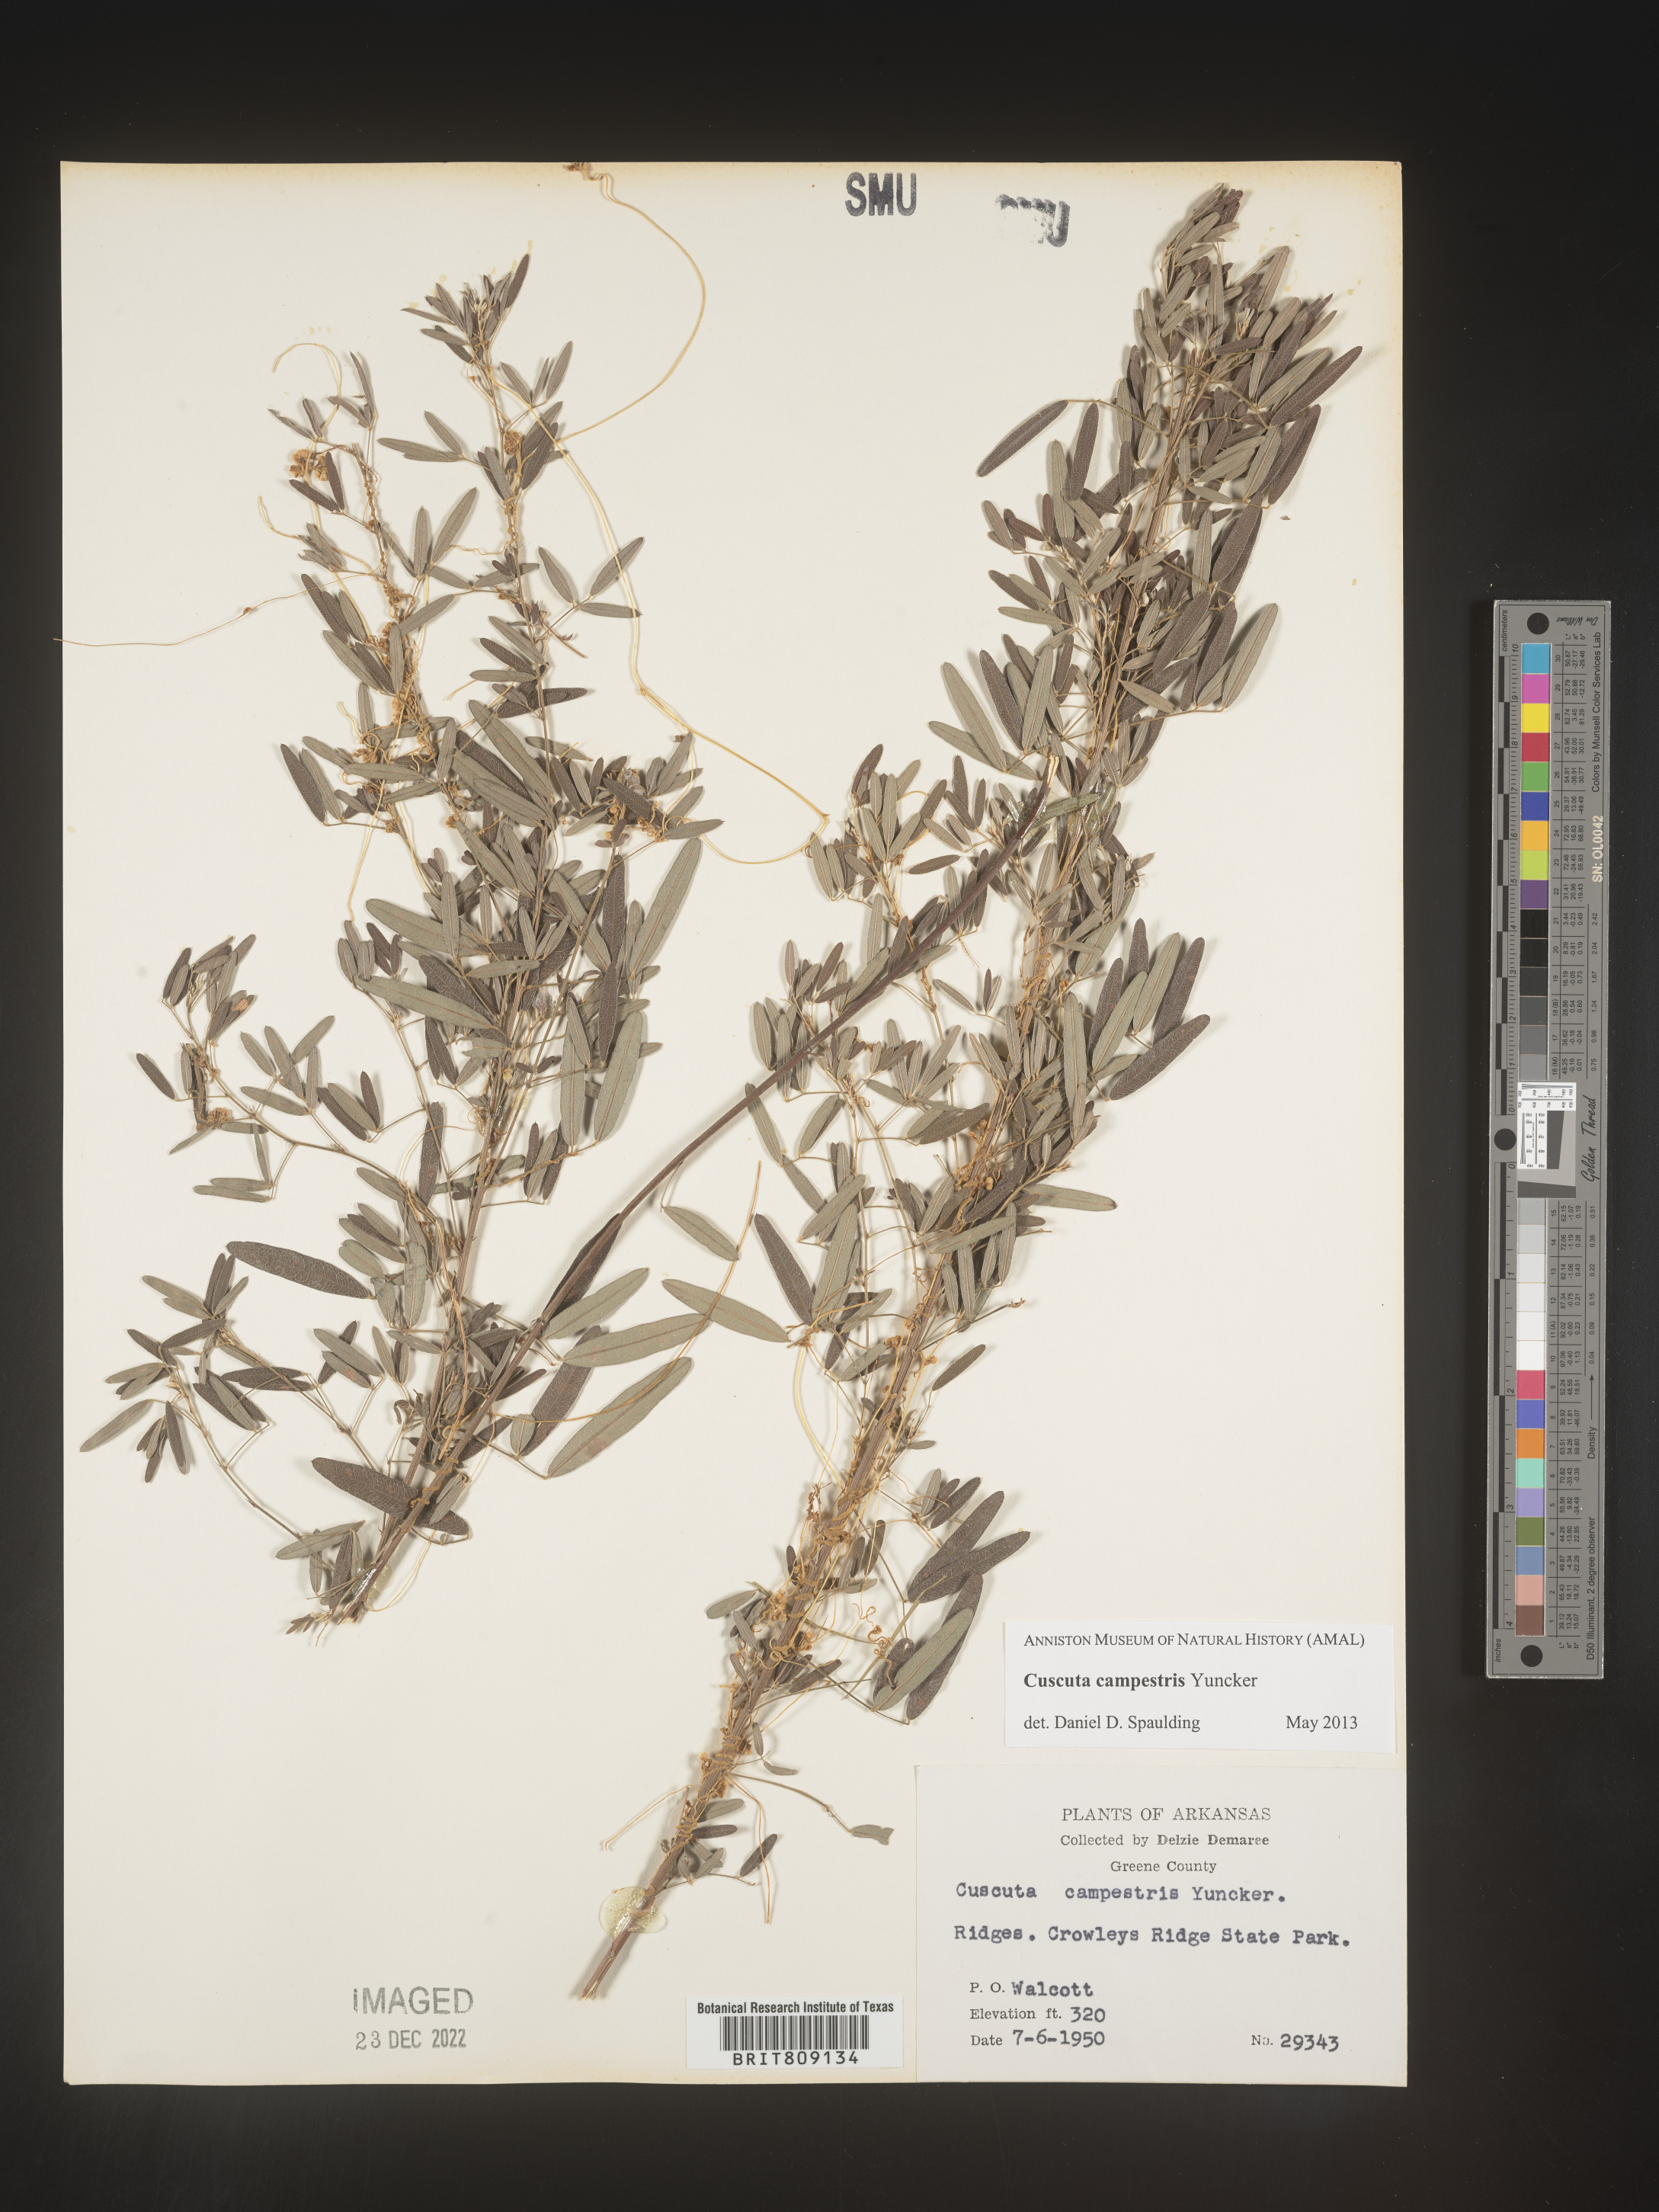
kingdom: Plantae
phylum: Tracheophyta
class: Magnoliopsida
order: Solanales
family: Convolvulaceae
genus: Cuscuta
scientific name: Cuscuta campestris
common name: Yellow dodder
